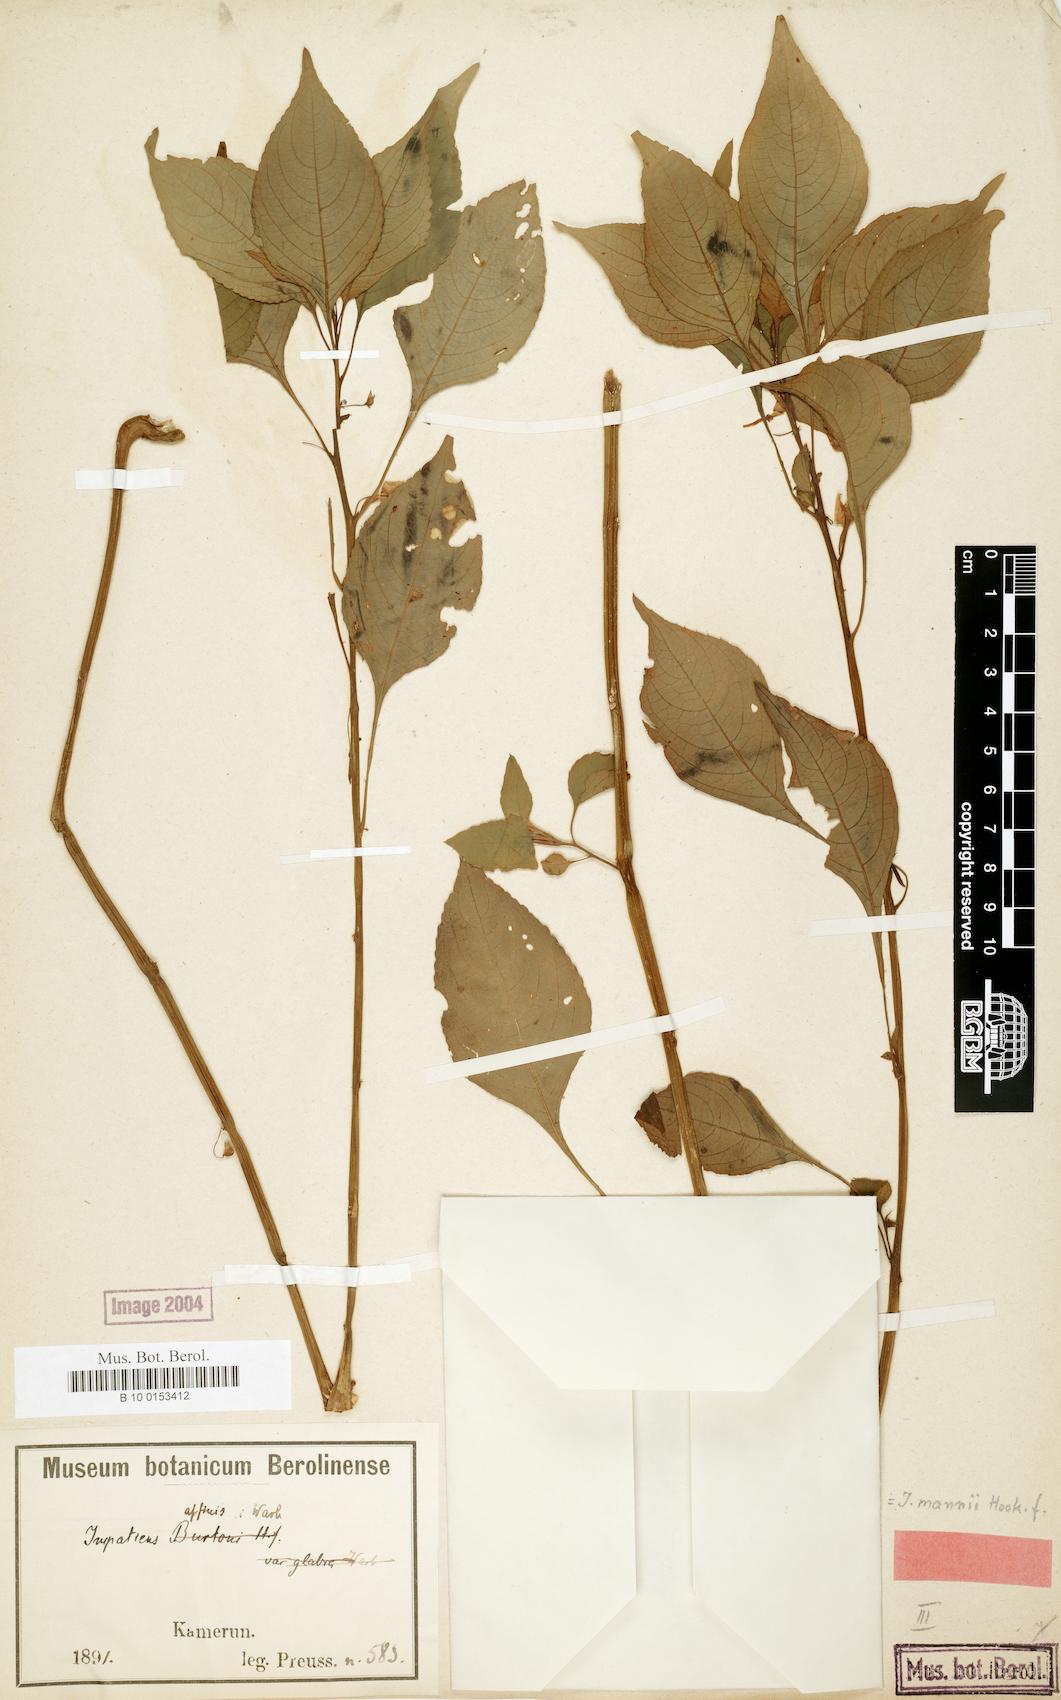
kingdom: Plantae
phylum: Tracheophyta
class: Magnoliopsida
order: Ericales
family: Balsaminaceae
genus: Impatiens
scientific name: Impatiens mannii
